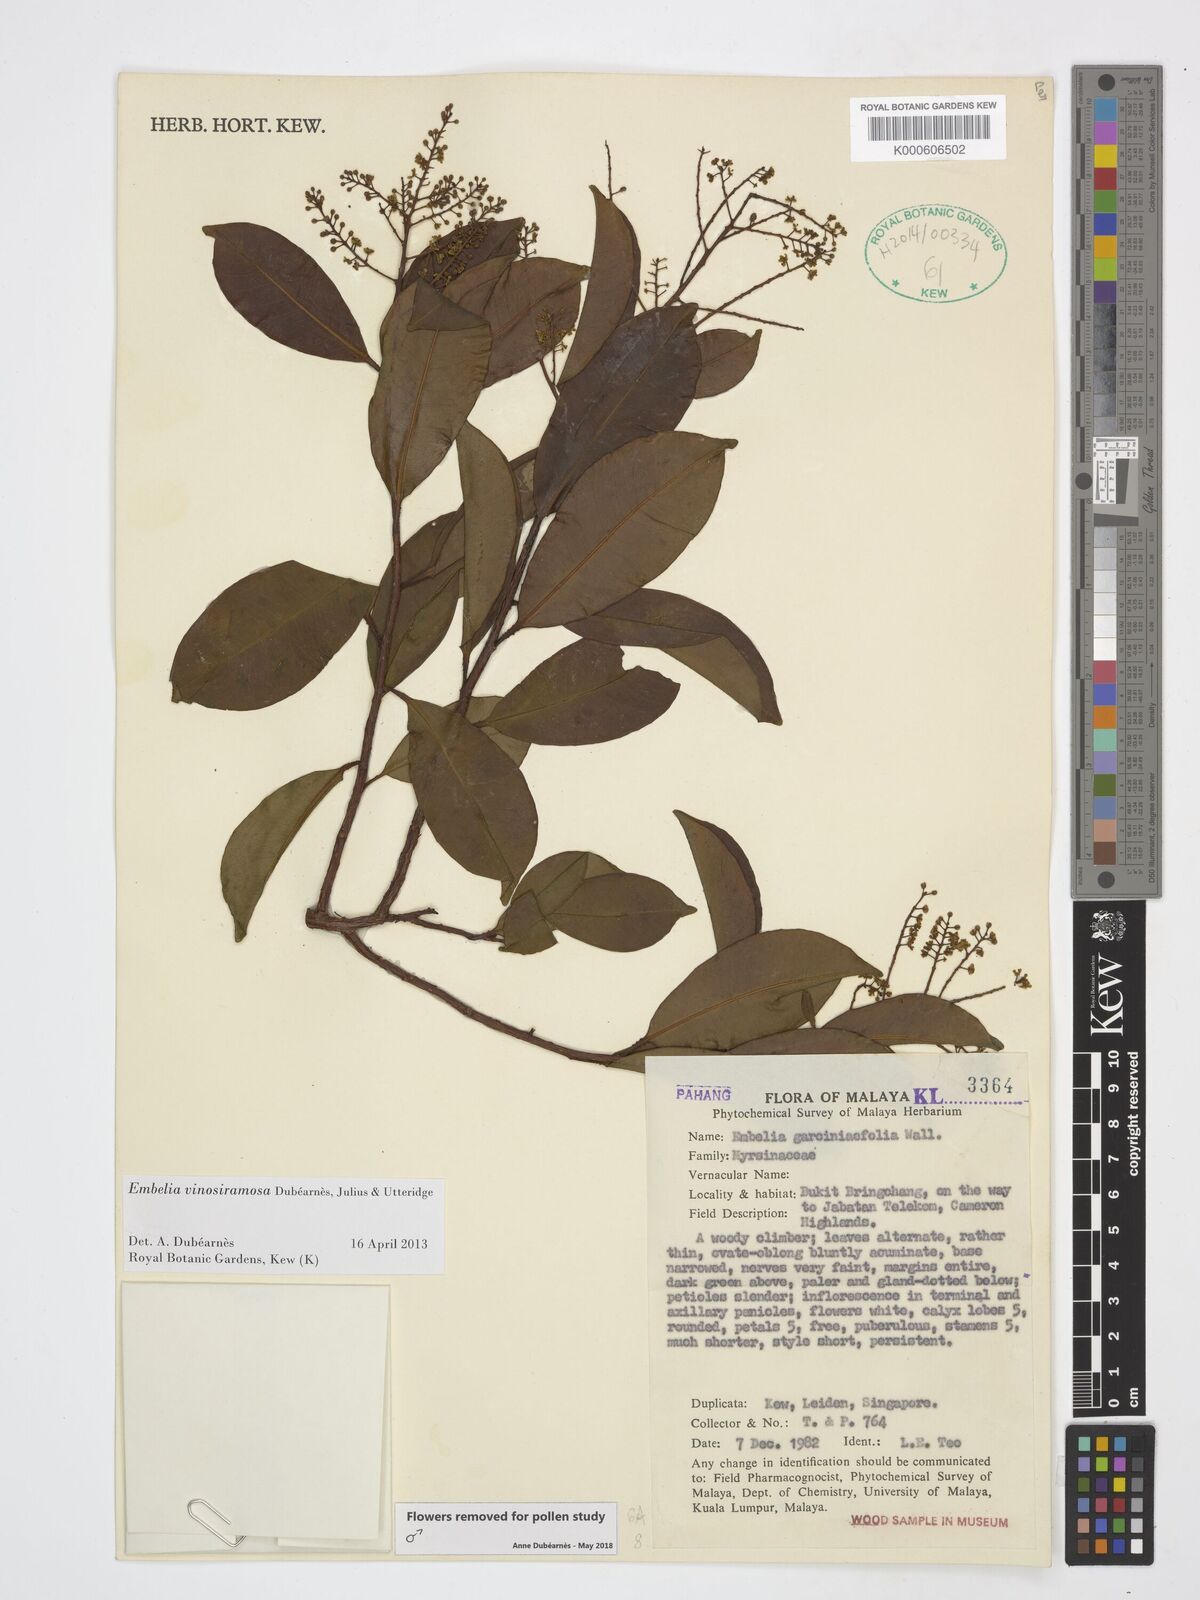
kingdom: Plantae
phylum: Tracheophyta
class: Magnoliopsida
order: Ericales
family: Primulaceae
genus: Embelia
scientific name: Embelia ribes
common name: Vidanga
